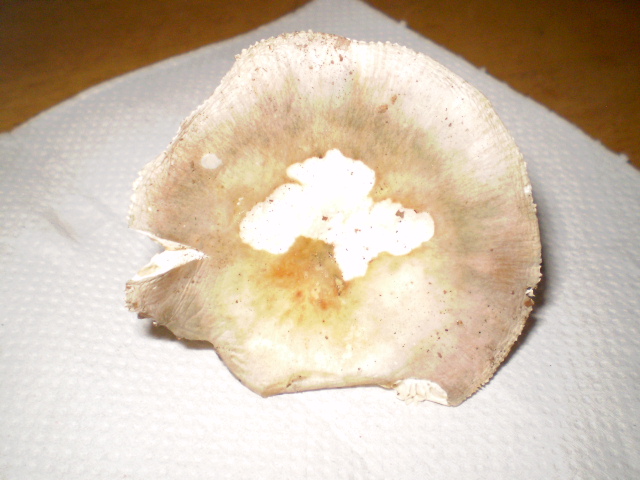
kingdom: Fungi
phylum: Basidiomycota
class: Agaricomycetes
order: Russulales
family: Russulaceae
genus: Russula
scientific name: Russula ionochlora
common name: violetgrøn skørhat
